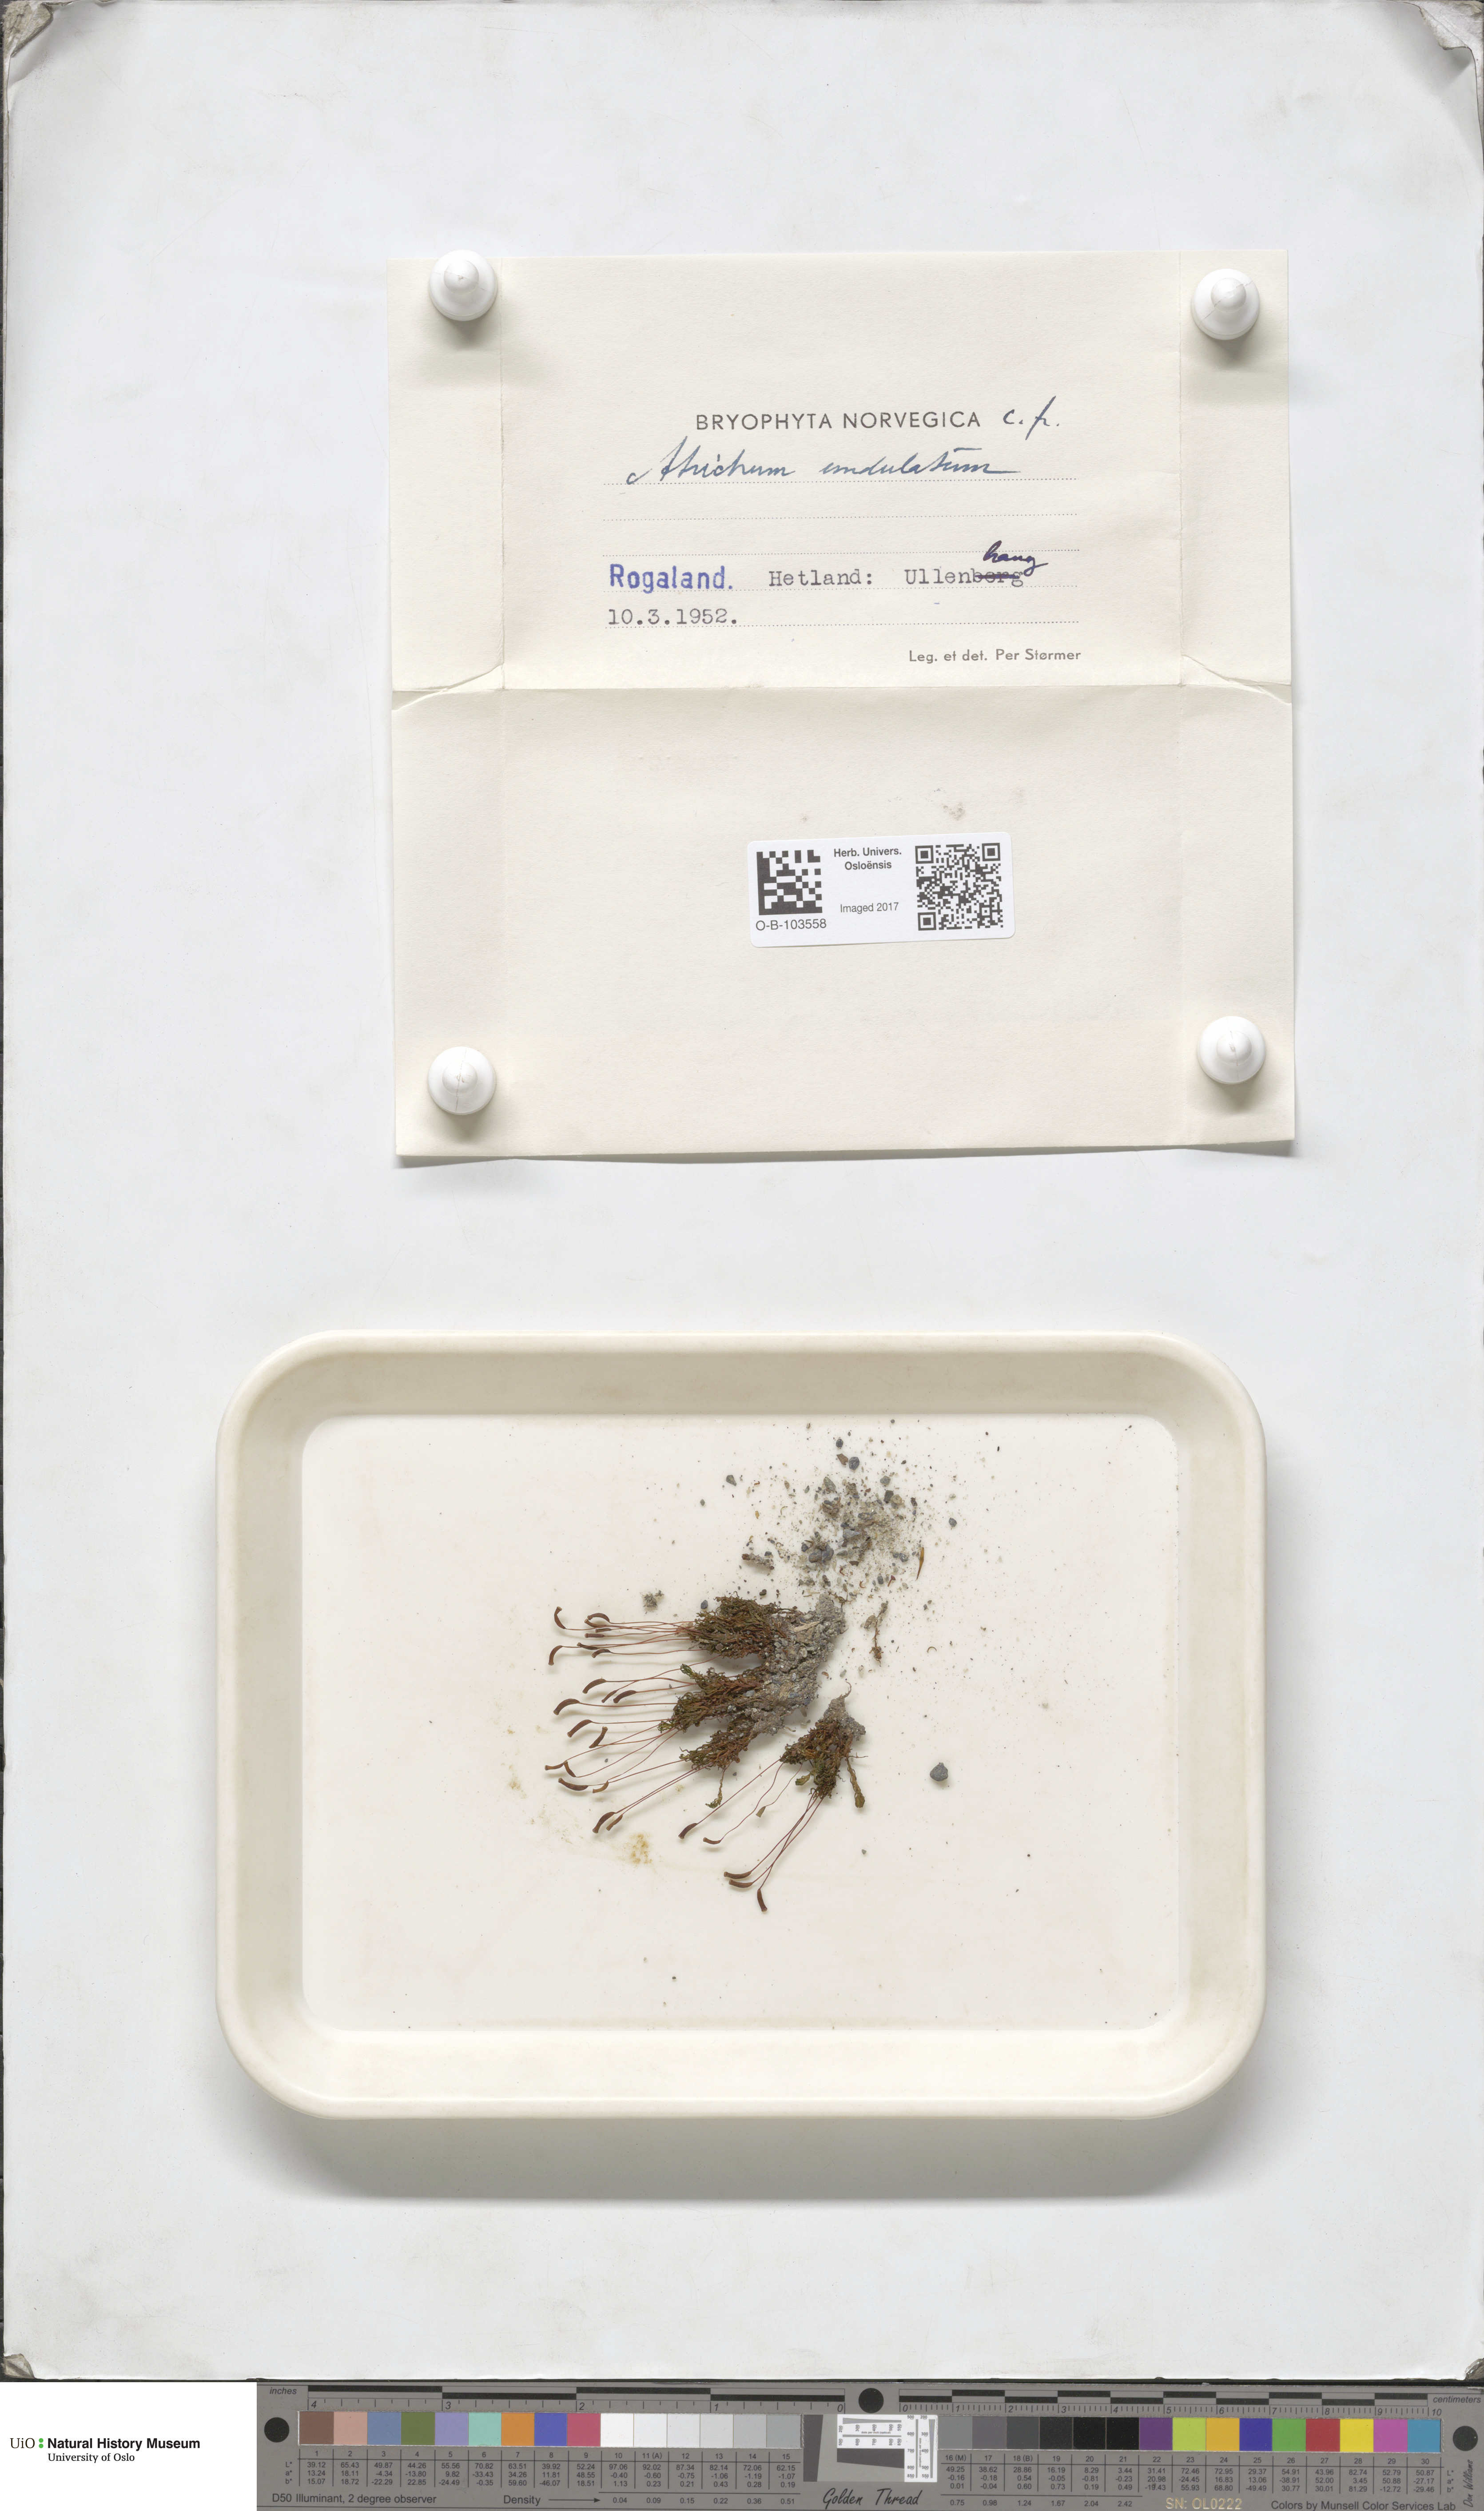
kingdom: Plantae
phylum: Bryophyta
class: Polytrichopsida
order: Polytrichales
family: Polytrichaceae
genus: Atrichum
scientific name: Atrichum undulatum
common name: Common smoothcap
